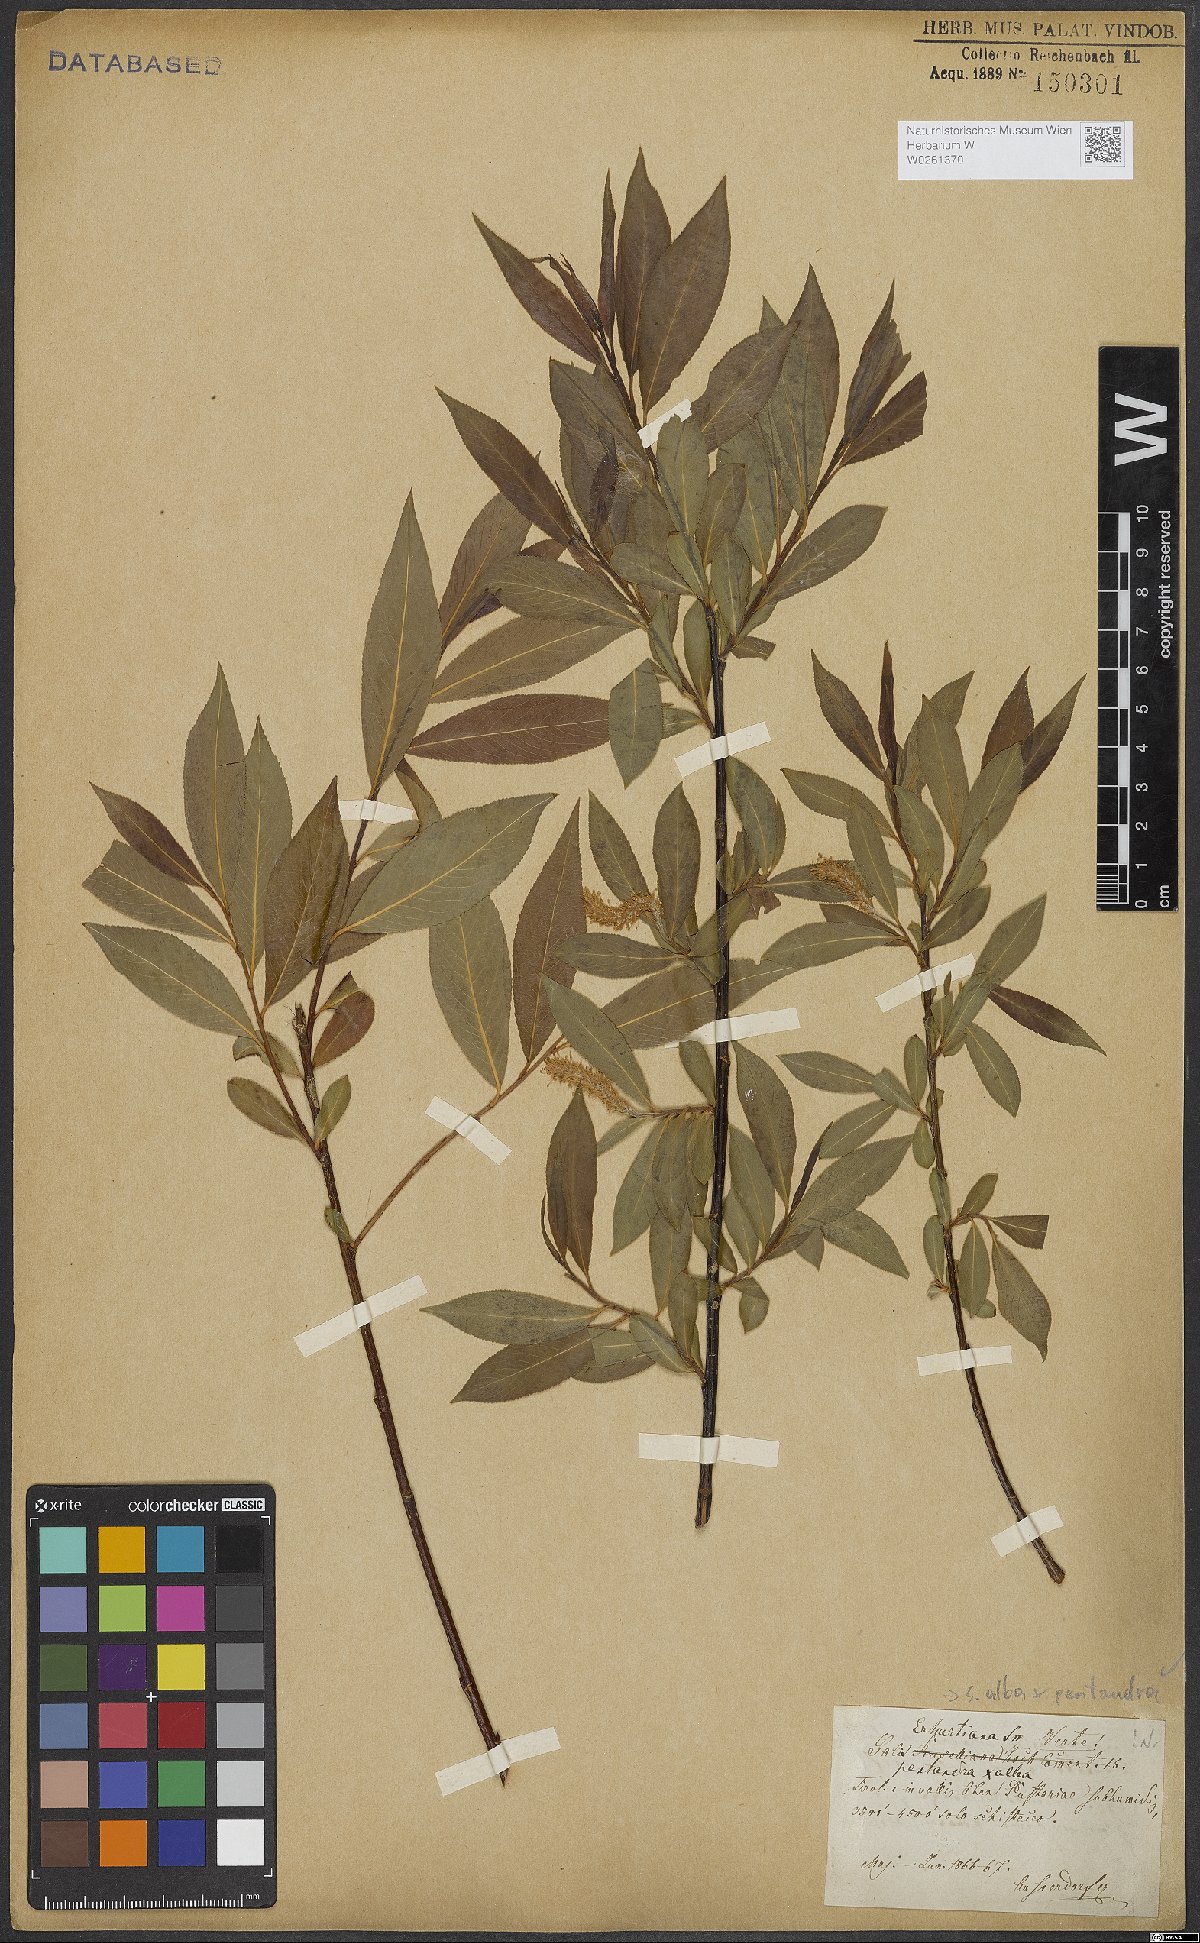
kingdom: Plantae
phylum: Tracheophyta
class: Magnoliopsida
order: Malpighiales
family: Salicaceae
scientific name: Salicaceae
